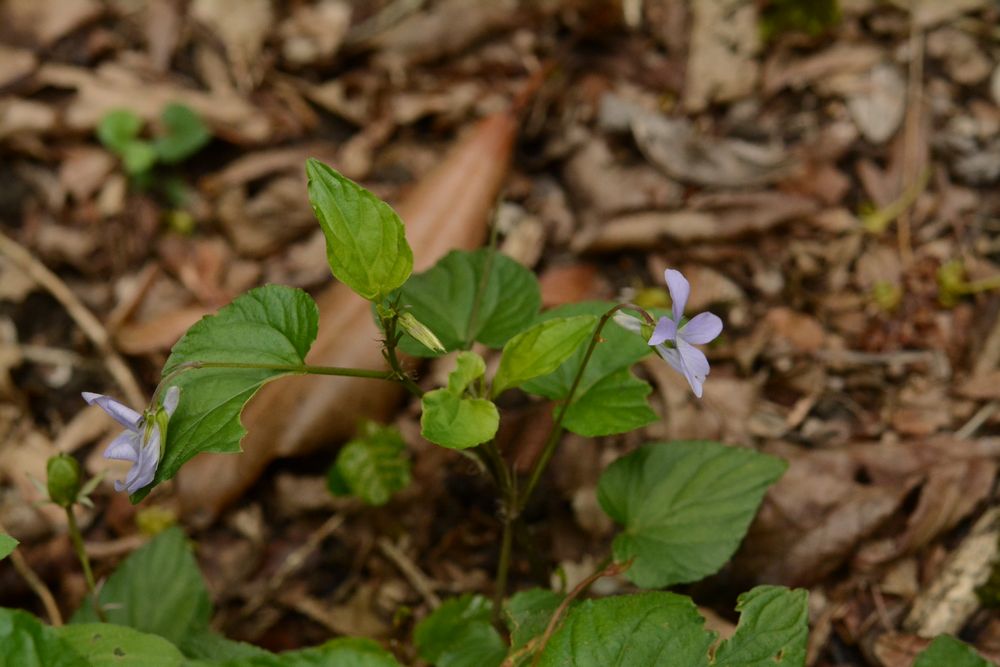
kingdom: Plantae
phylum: Tracheophyta
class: Magnoliopsida
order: Malpighiales
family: Violaceae
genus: Viola
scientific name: Viola
